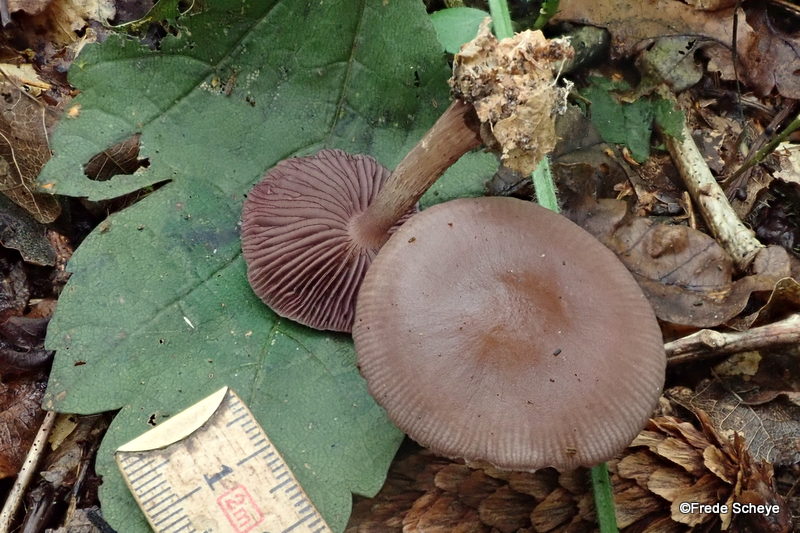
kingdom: Fungi
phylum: Basidiomycota
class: Agaricomycetes
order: Agaricales
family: Mycenaceae
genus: Mycena
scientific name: Mycena pelianthina
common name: mørkbladet huesvamp
